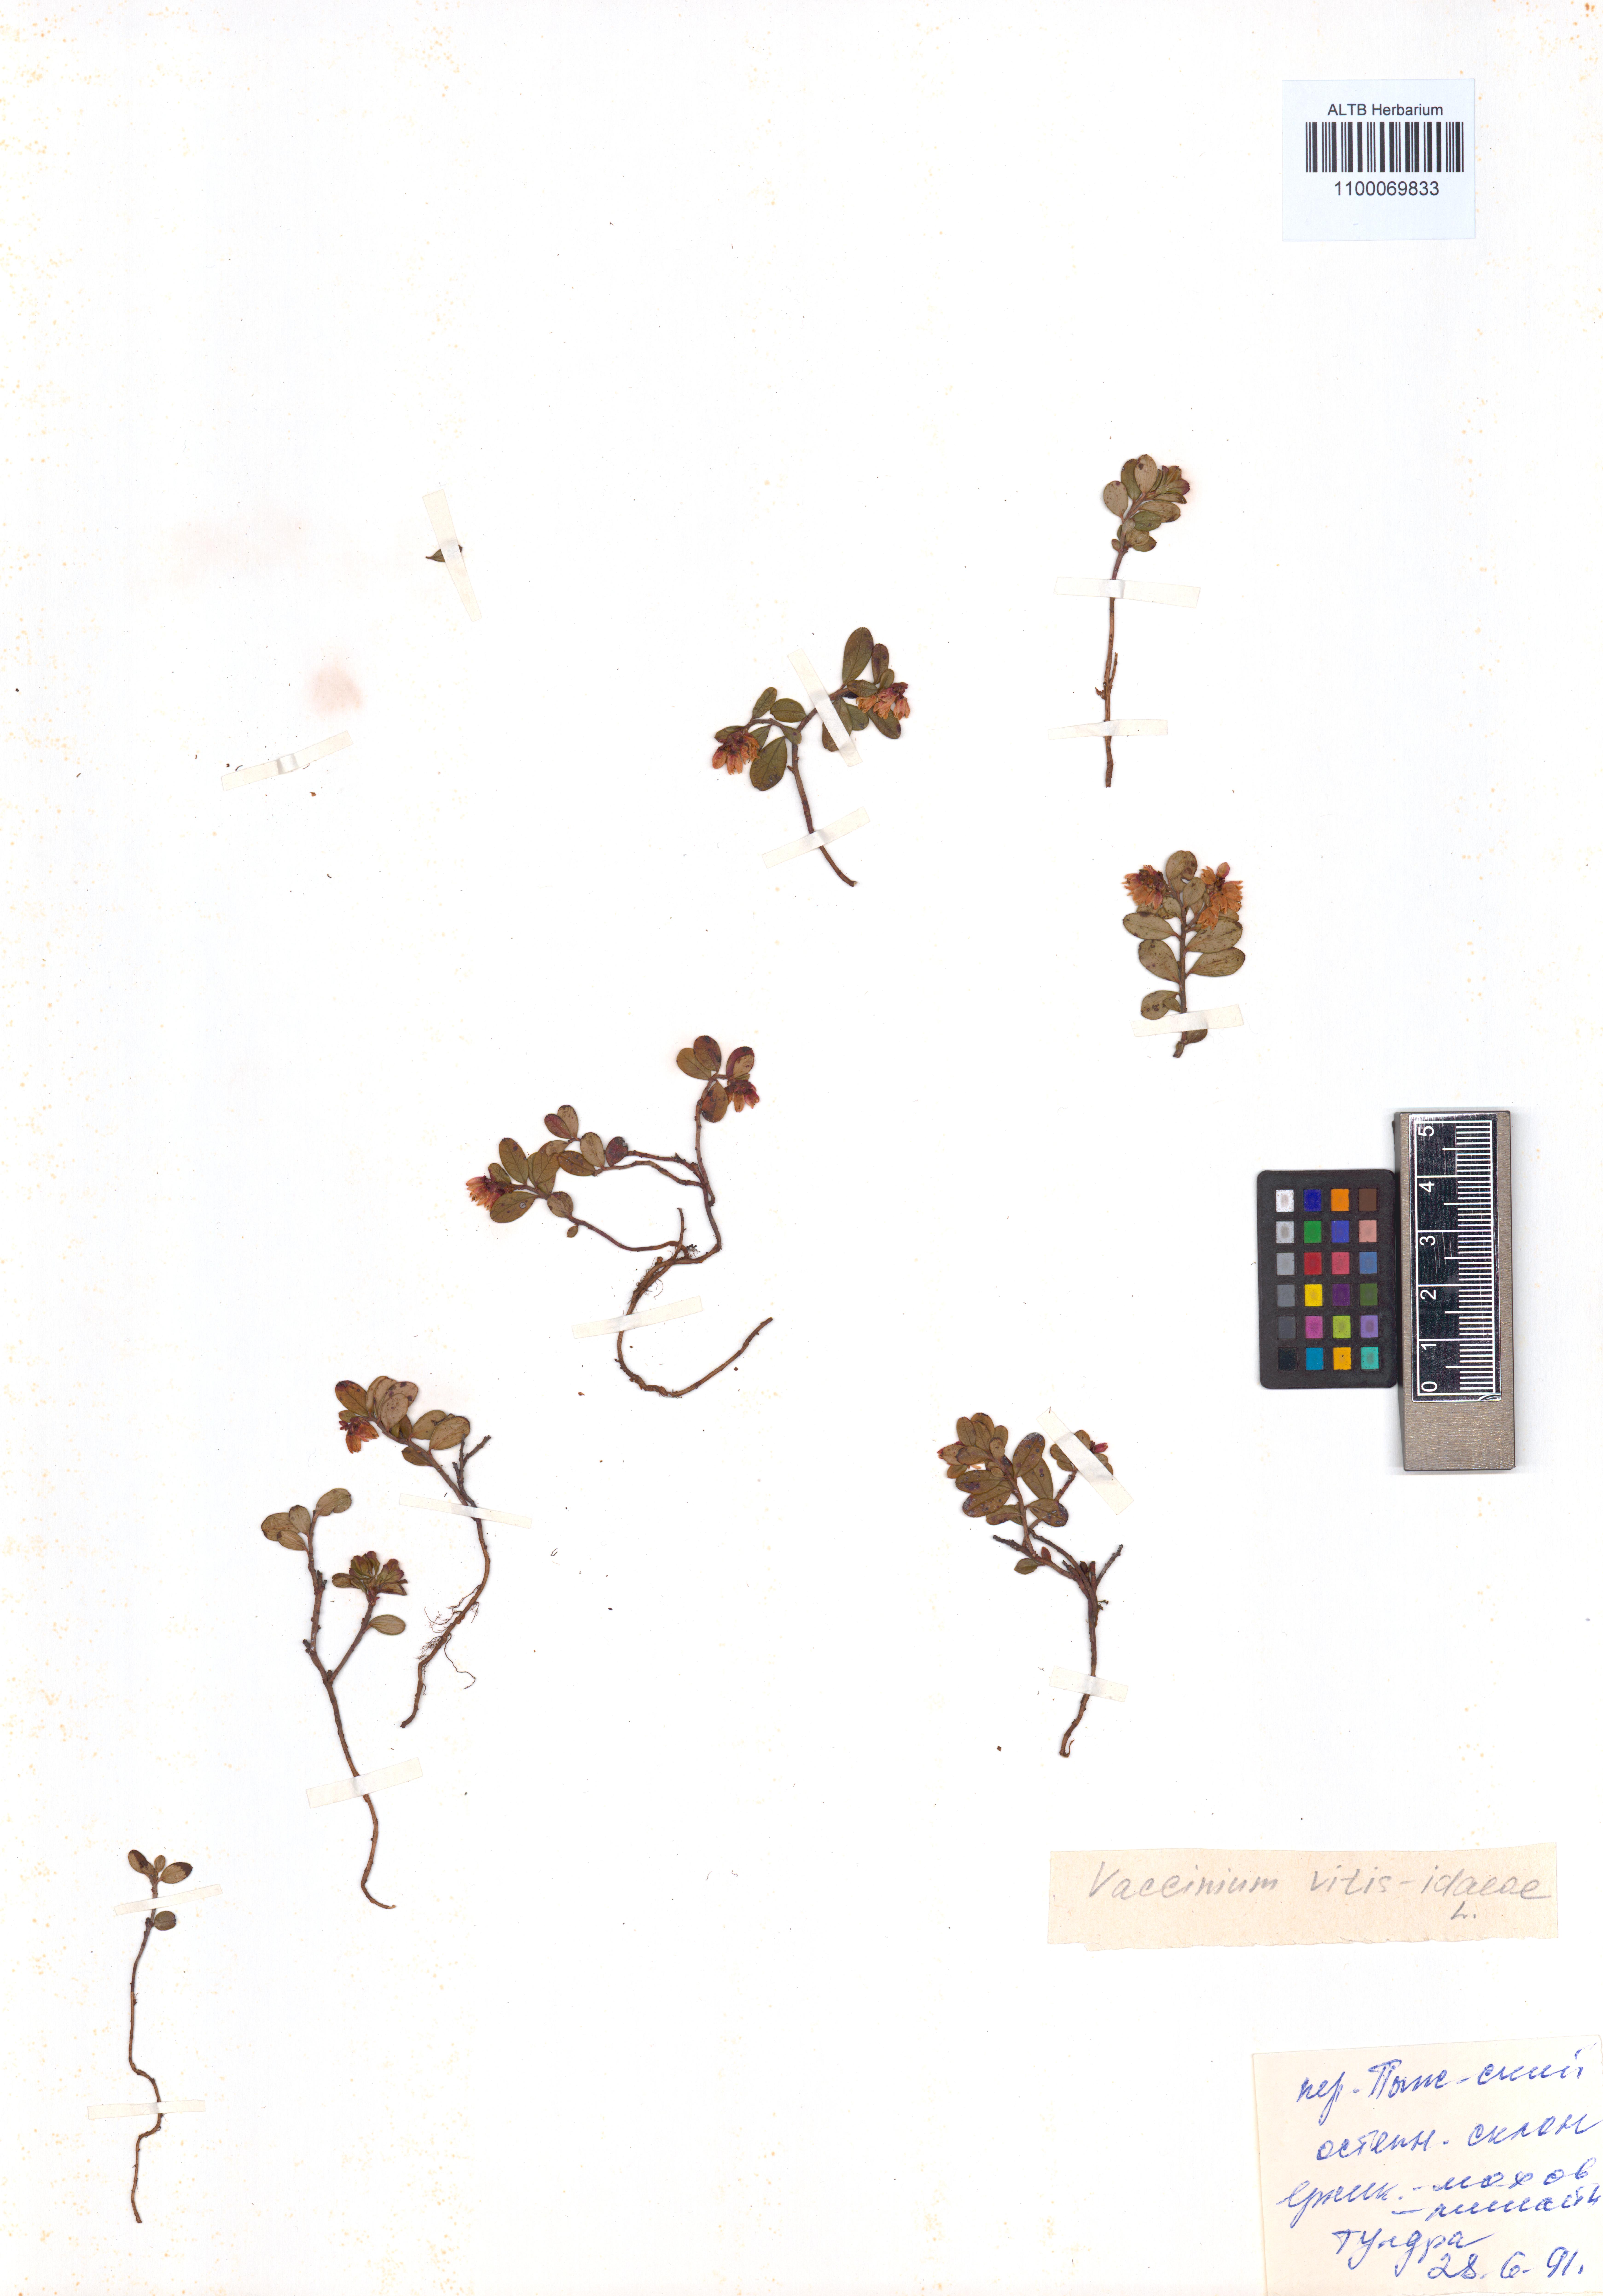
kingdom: Plantae
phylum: Tracheophyta
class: Magnoliopsida
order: Ericales
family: Ericaceae
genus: Vaccinium
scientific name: Vaccinium vitis-idaea
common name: Cowberry
